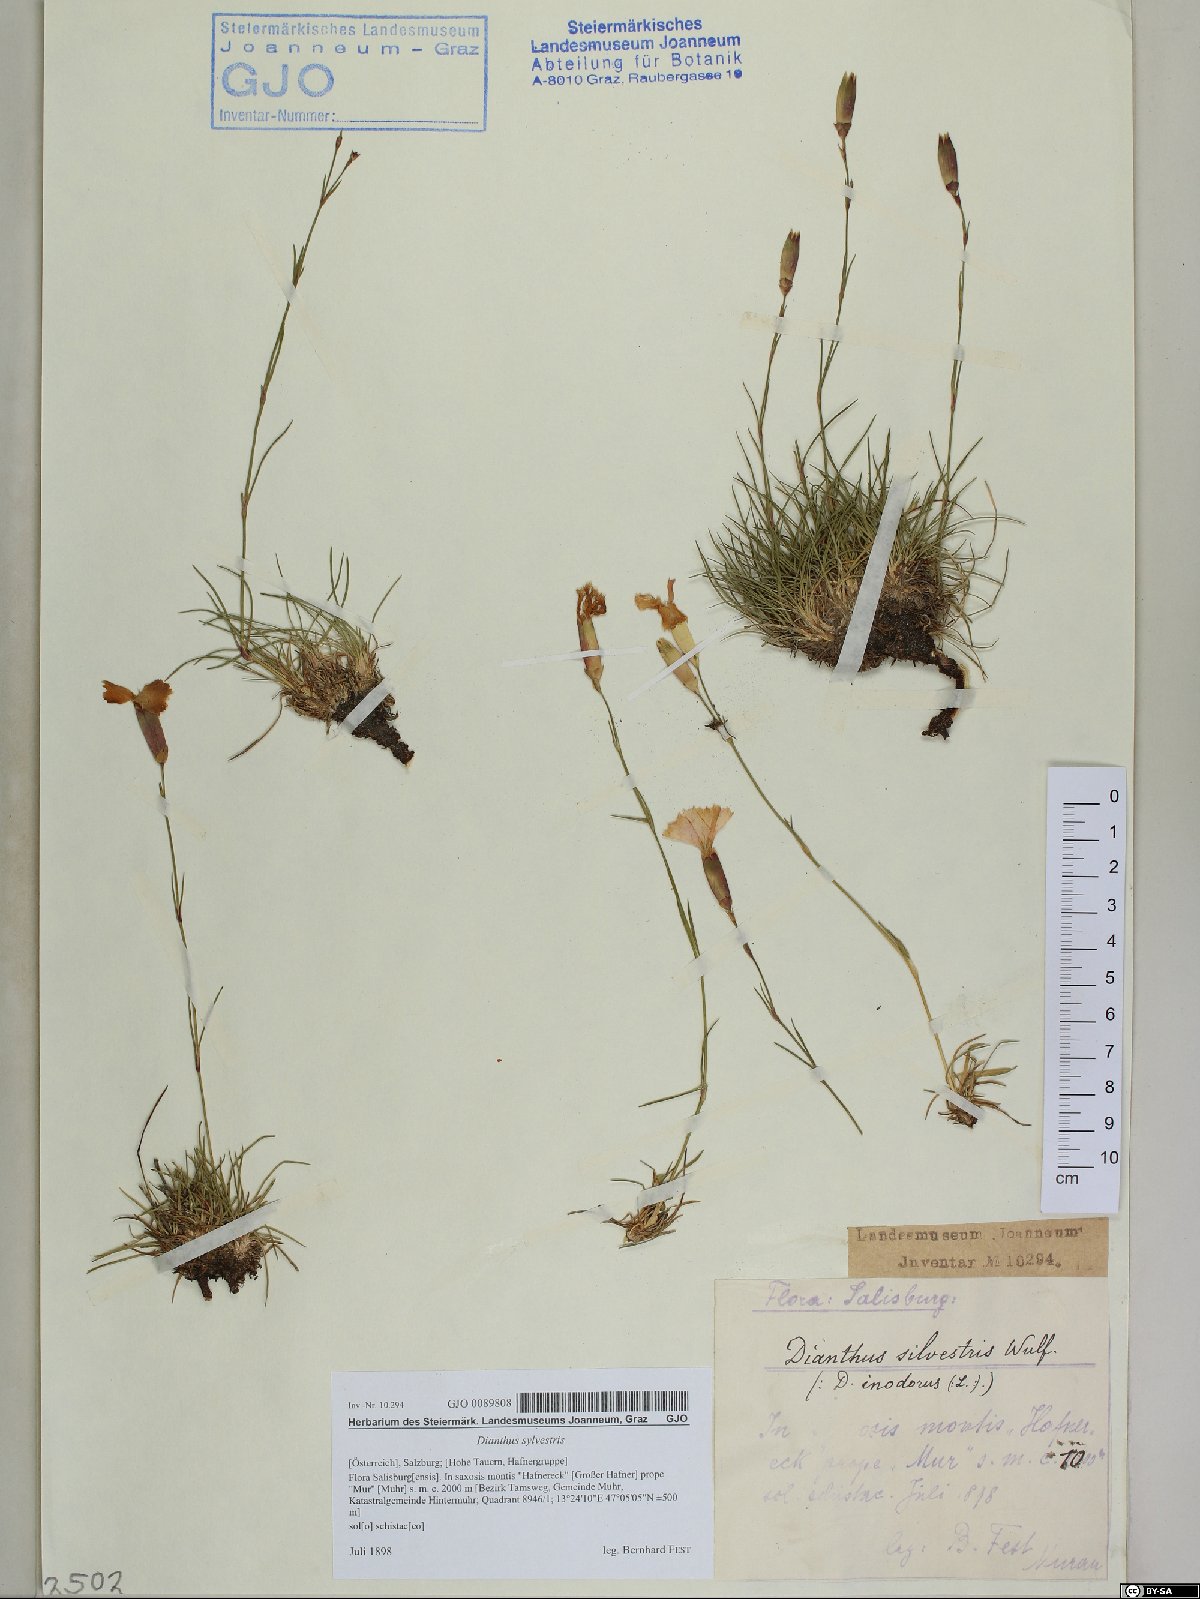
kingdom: Plantae
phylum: Tracheophyta
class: Magnoliopsida
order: Caryophyllales
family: Caryophyllaceae
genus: Dianthus
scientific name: Dianthus sylvestris
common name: Wood pink
